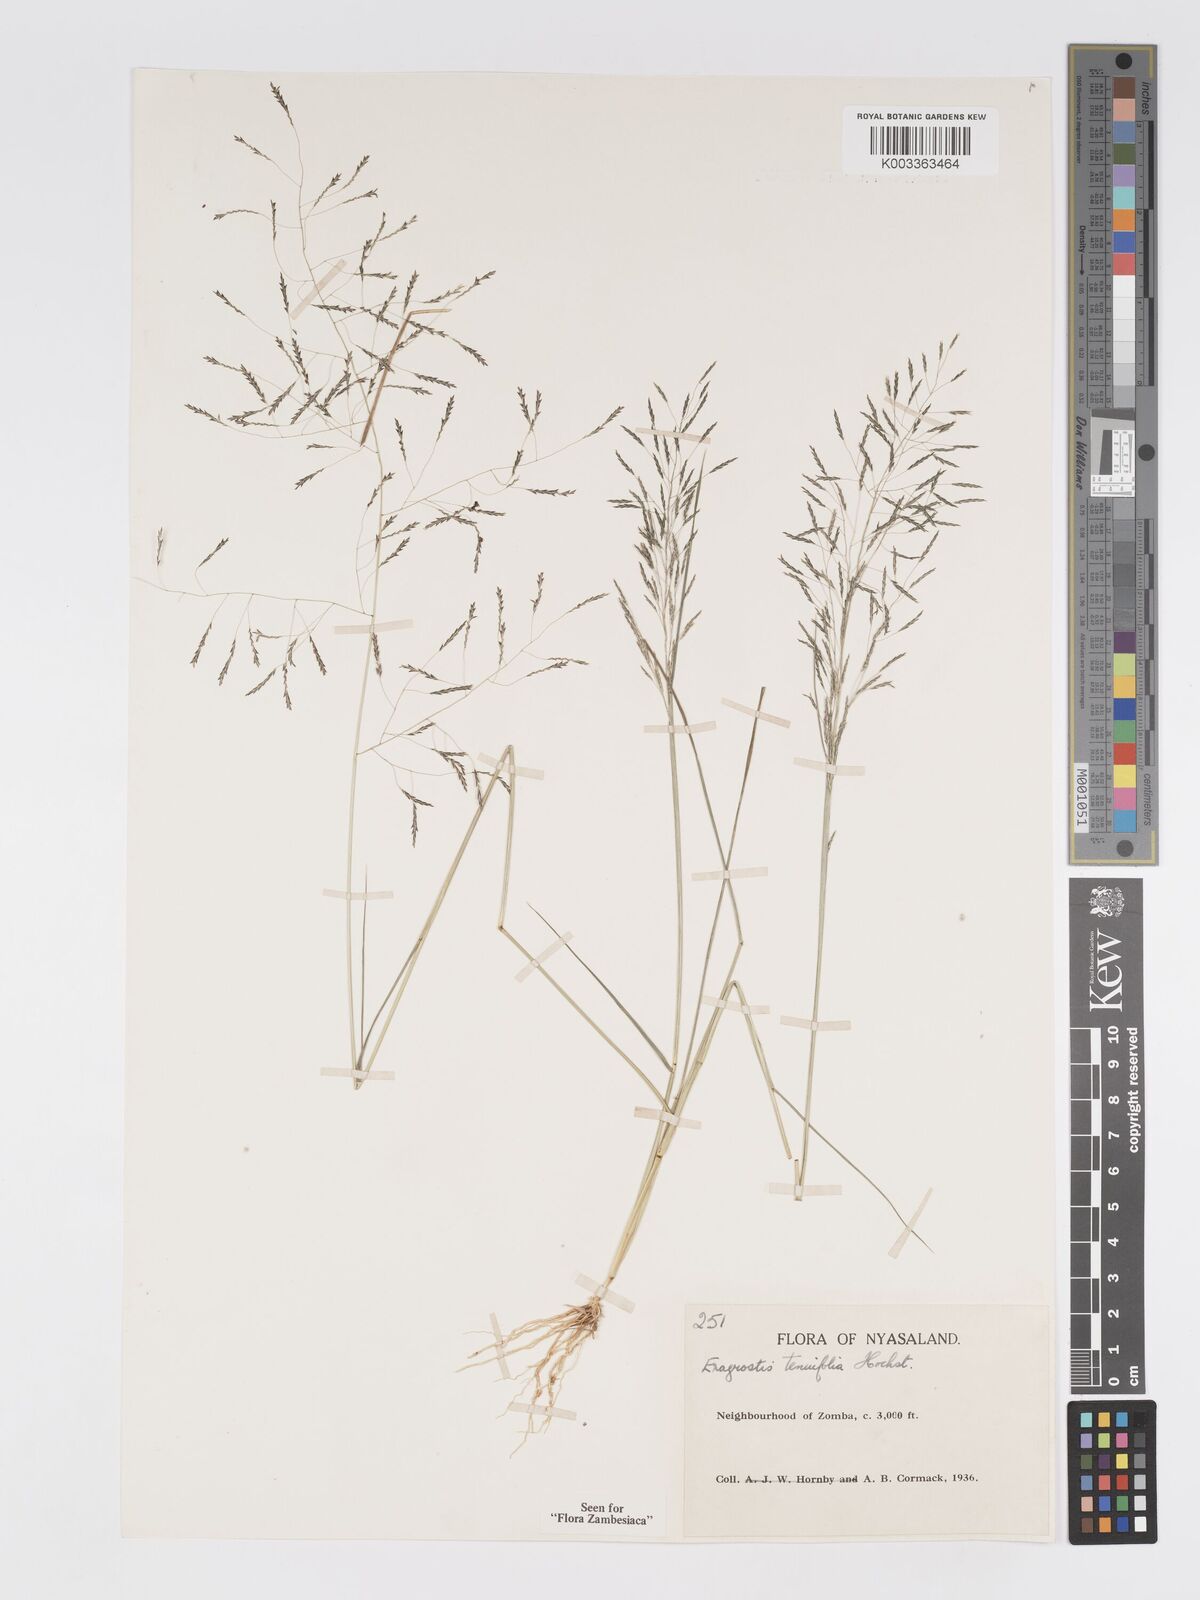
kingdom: Plantae
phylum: Tracheophyta
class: Liliopsida
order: Poales
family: Poaceae
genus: Eragrostis
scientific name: Eragrostis tenuifolia
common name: Elastic grass
